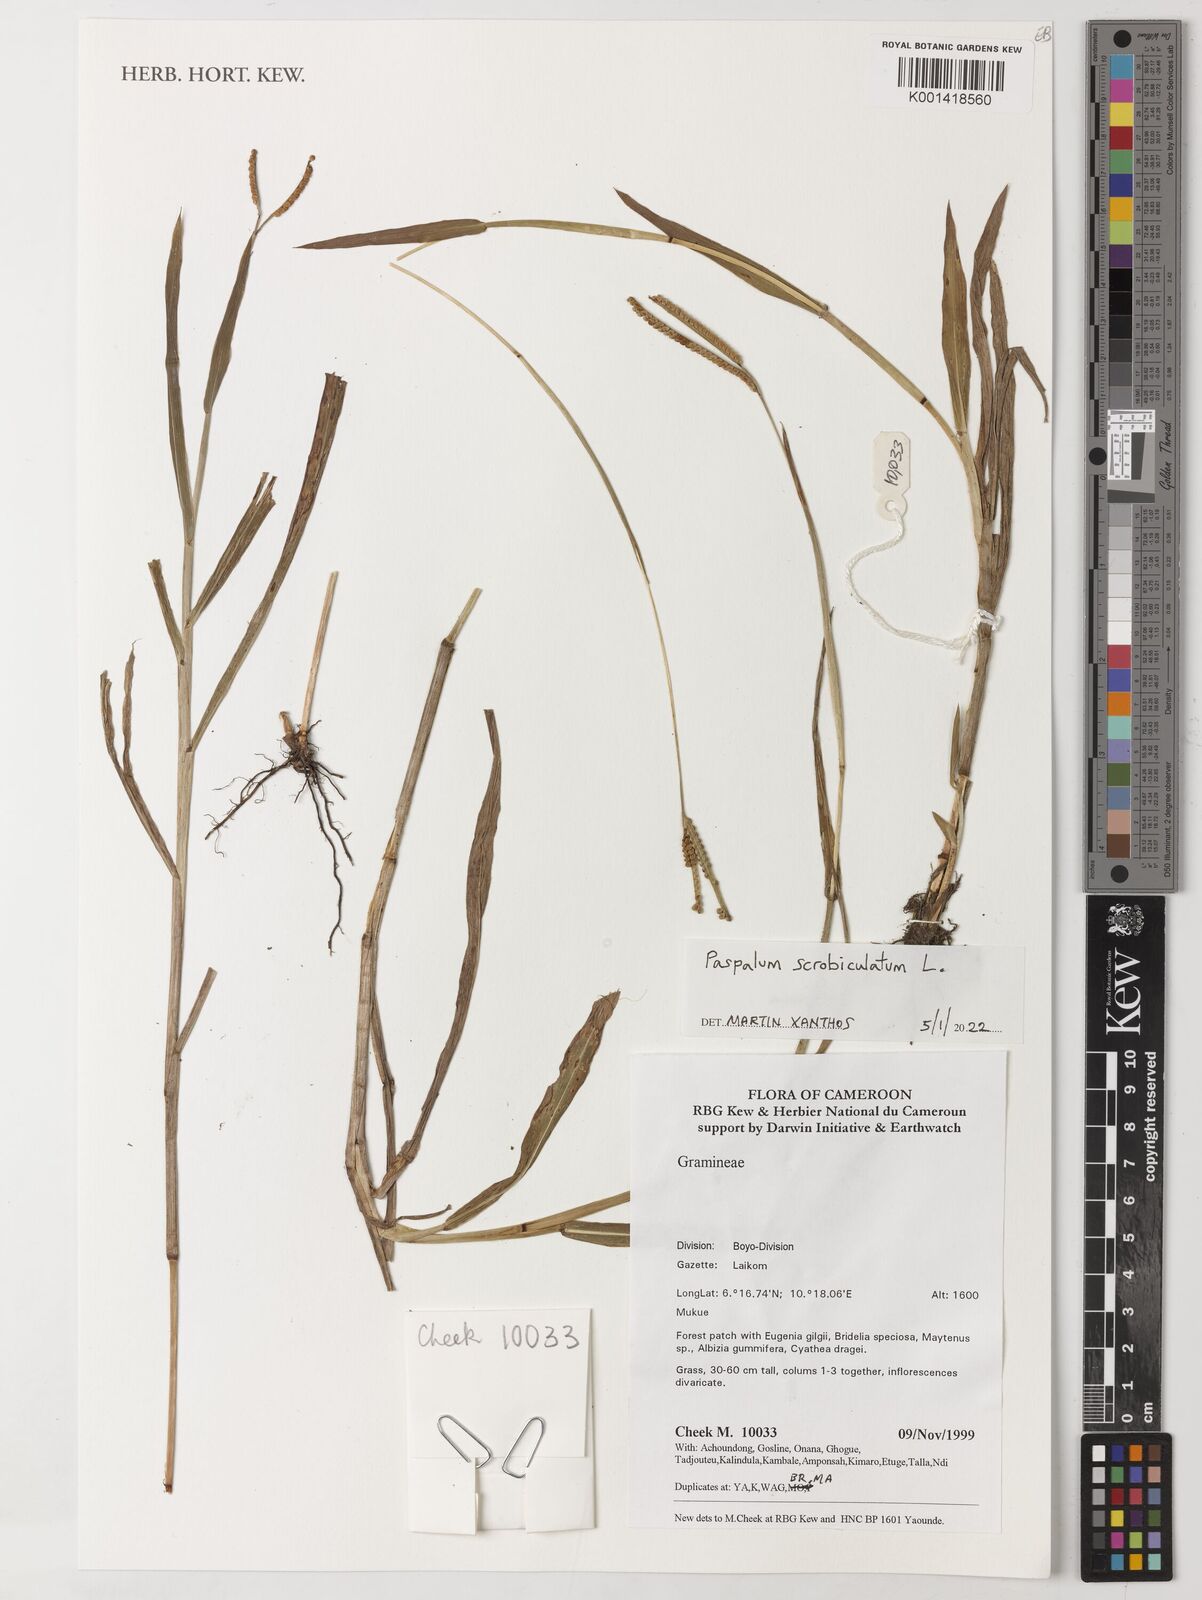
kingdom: Plantae
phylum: Tracheophyta
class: Liliopsida
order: Poales
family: Poaceae
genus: Paspalum
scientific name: Paspalum scrobiculatum
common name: Kodo millet
